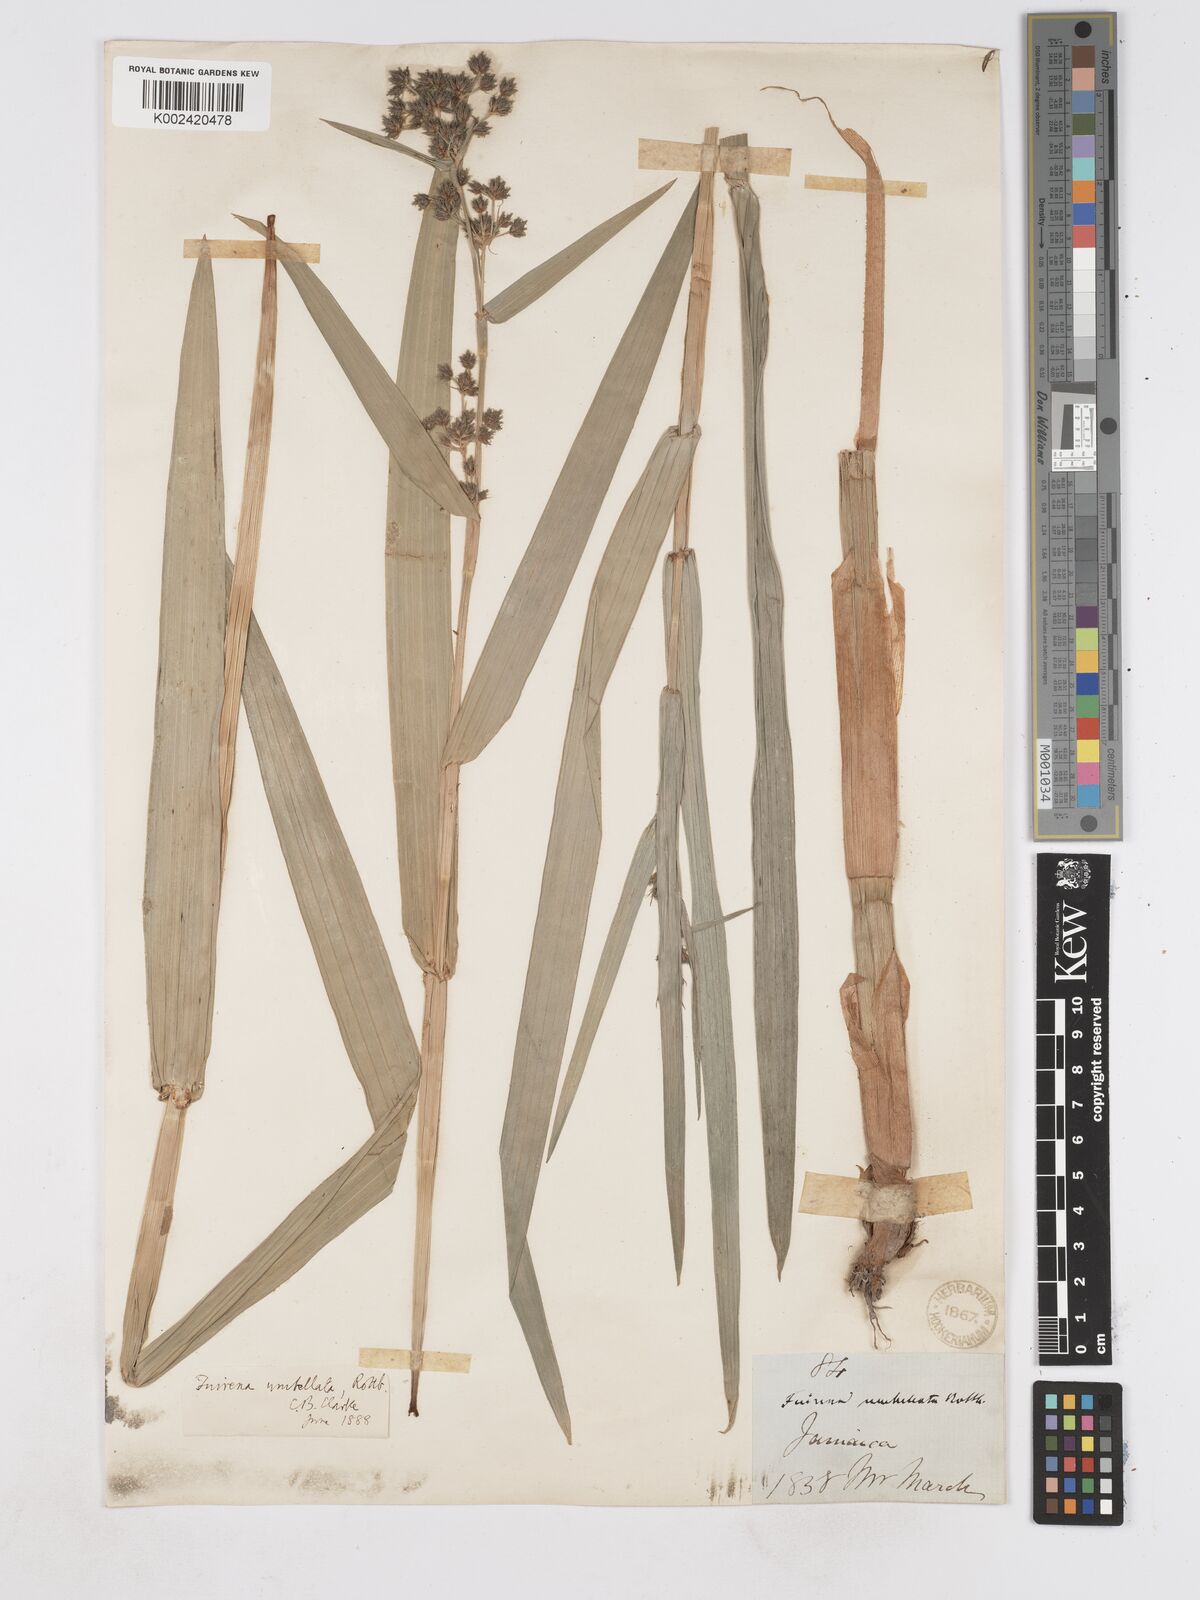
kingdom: Plantae
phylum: Tracheophyta
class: Liliopsida
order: Poales
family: Cyperaceae
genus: Fuirena
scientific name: Fuirena umbellata
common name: Yefen
